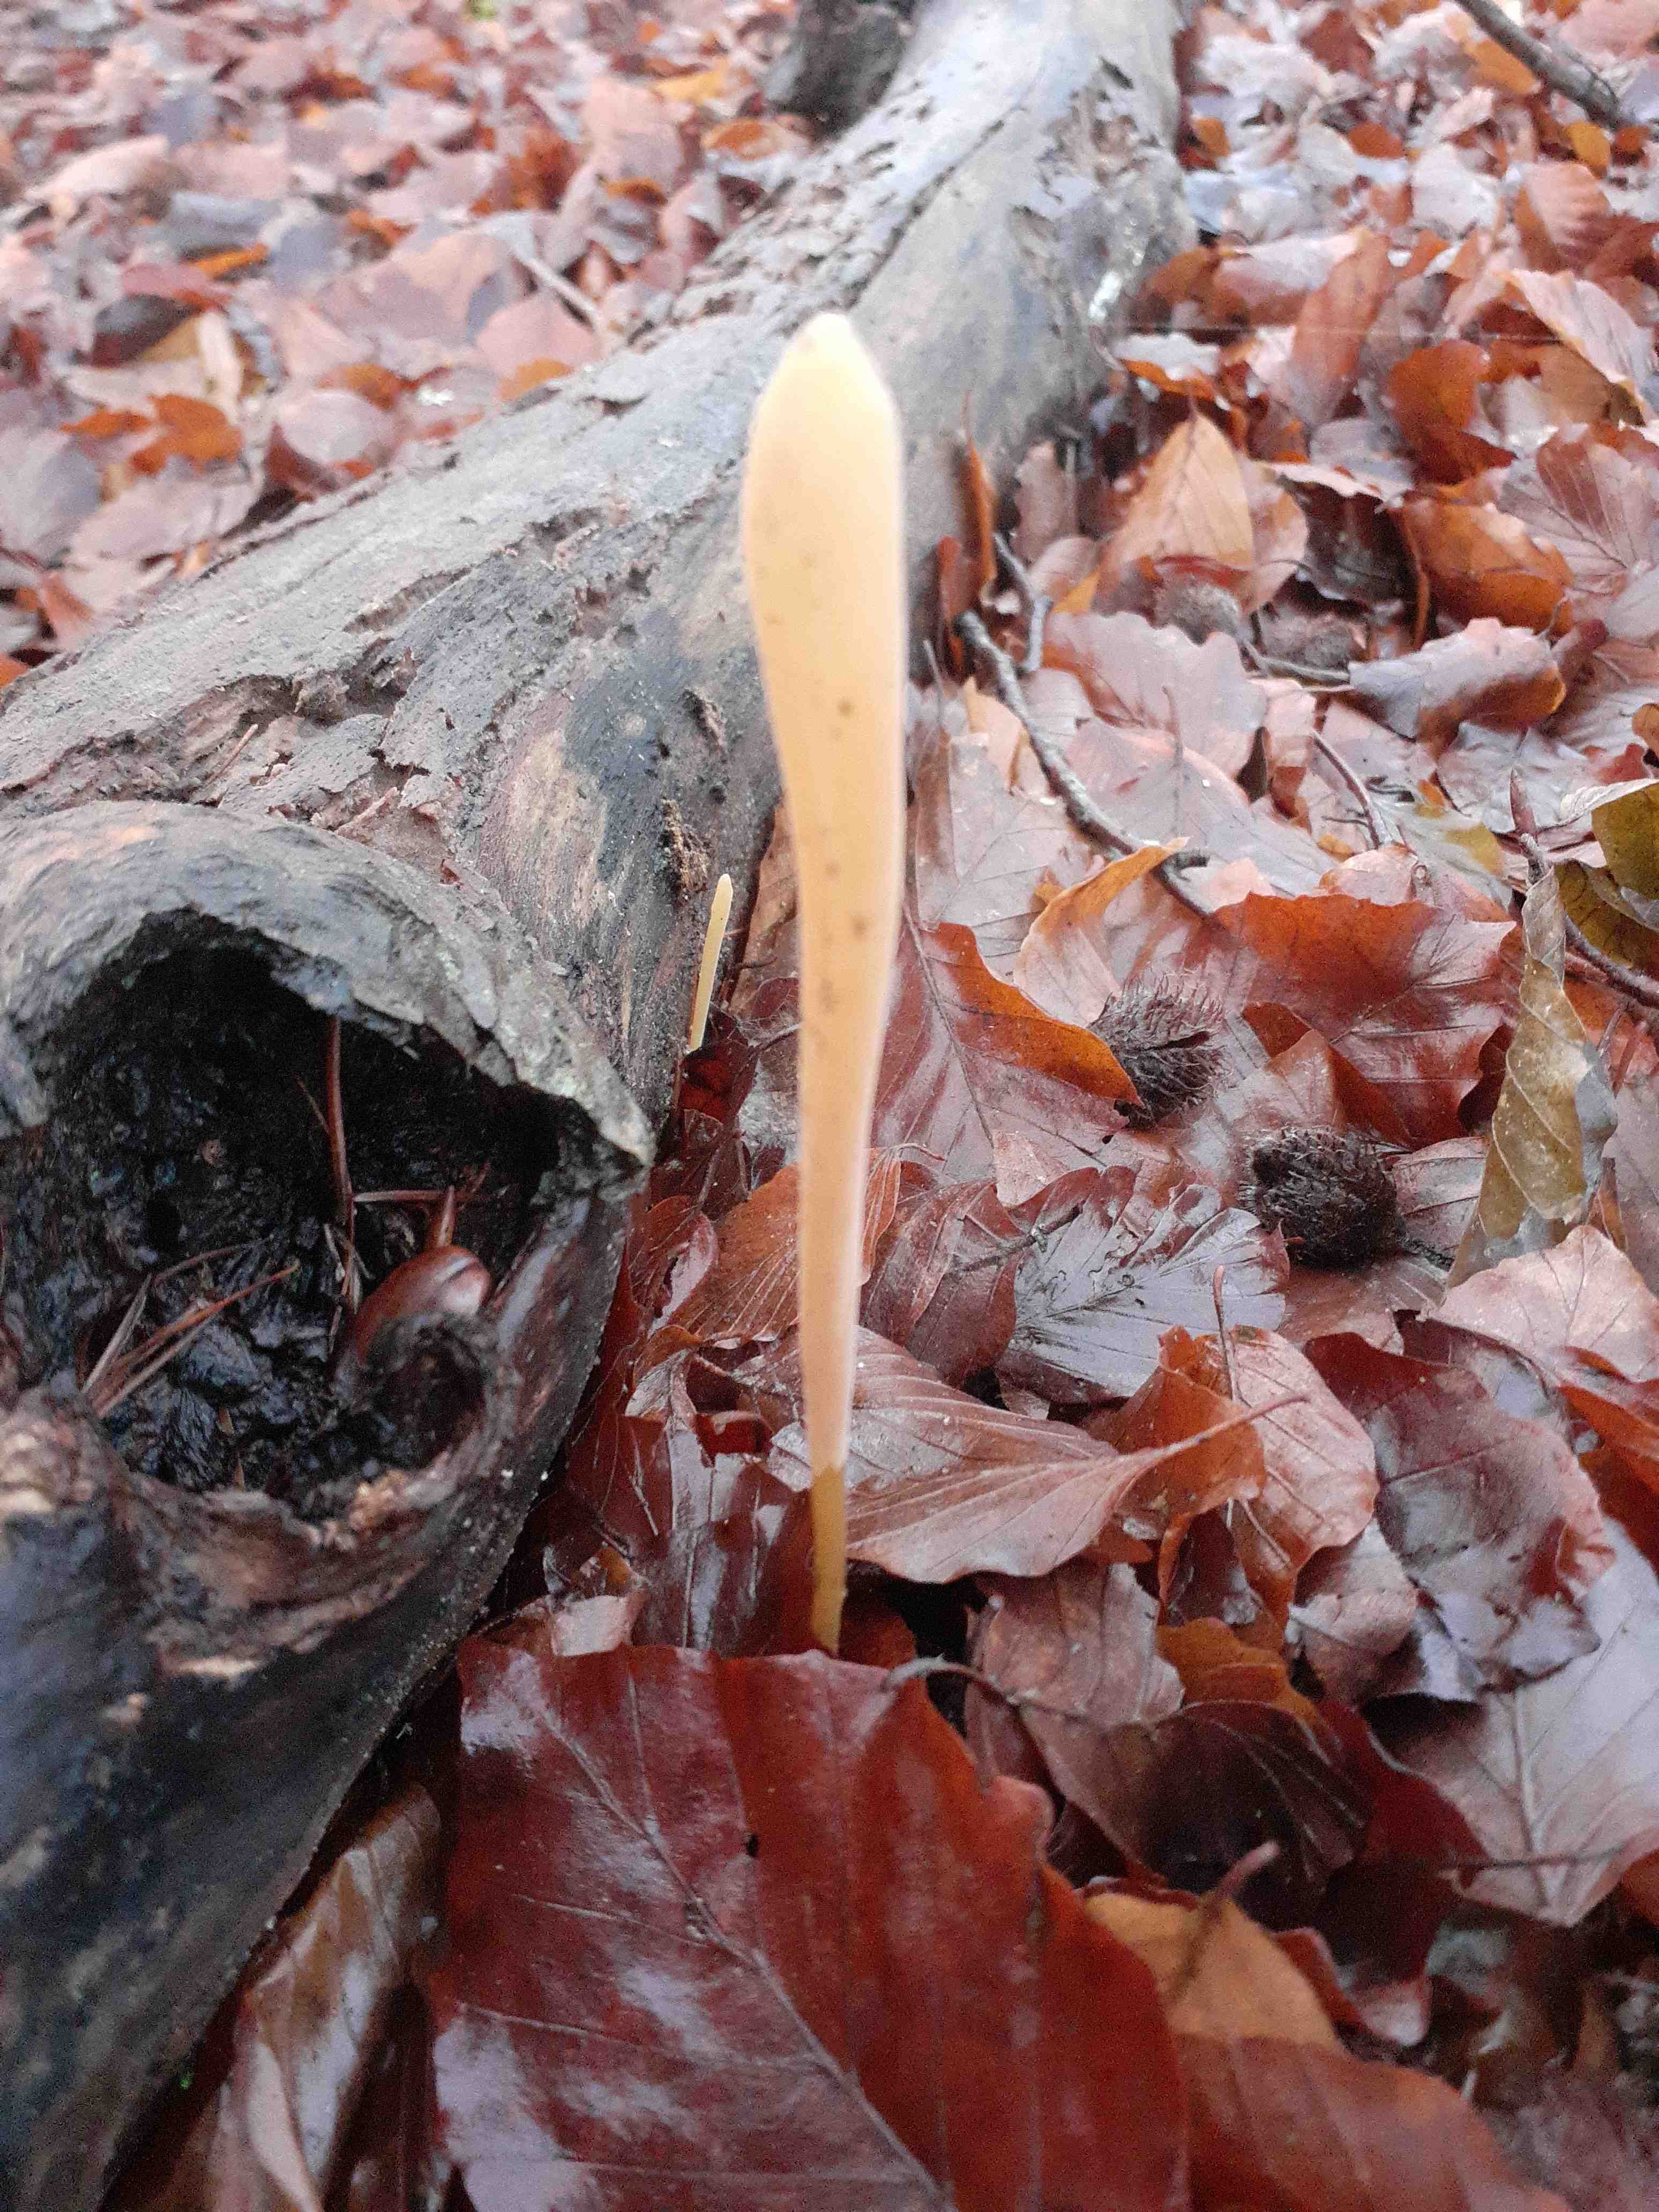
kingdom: Fungi
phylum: Basidiomycota
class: Agaricomycetes
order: Agaricales
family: Typhulaceae
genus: Typhula
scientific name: Typhula fistulosa
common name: pibet rørkølle
